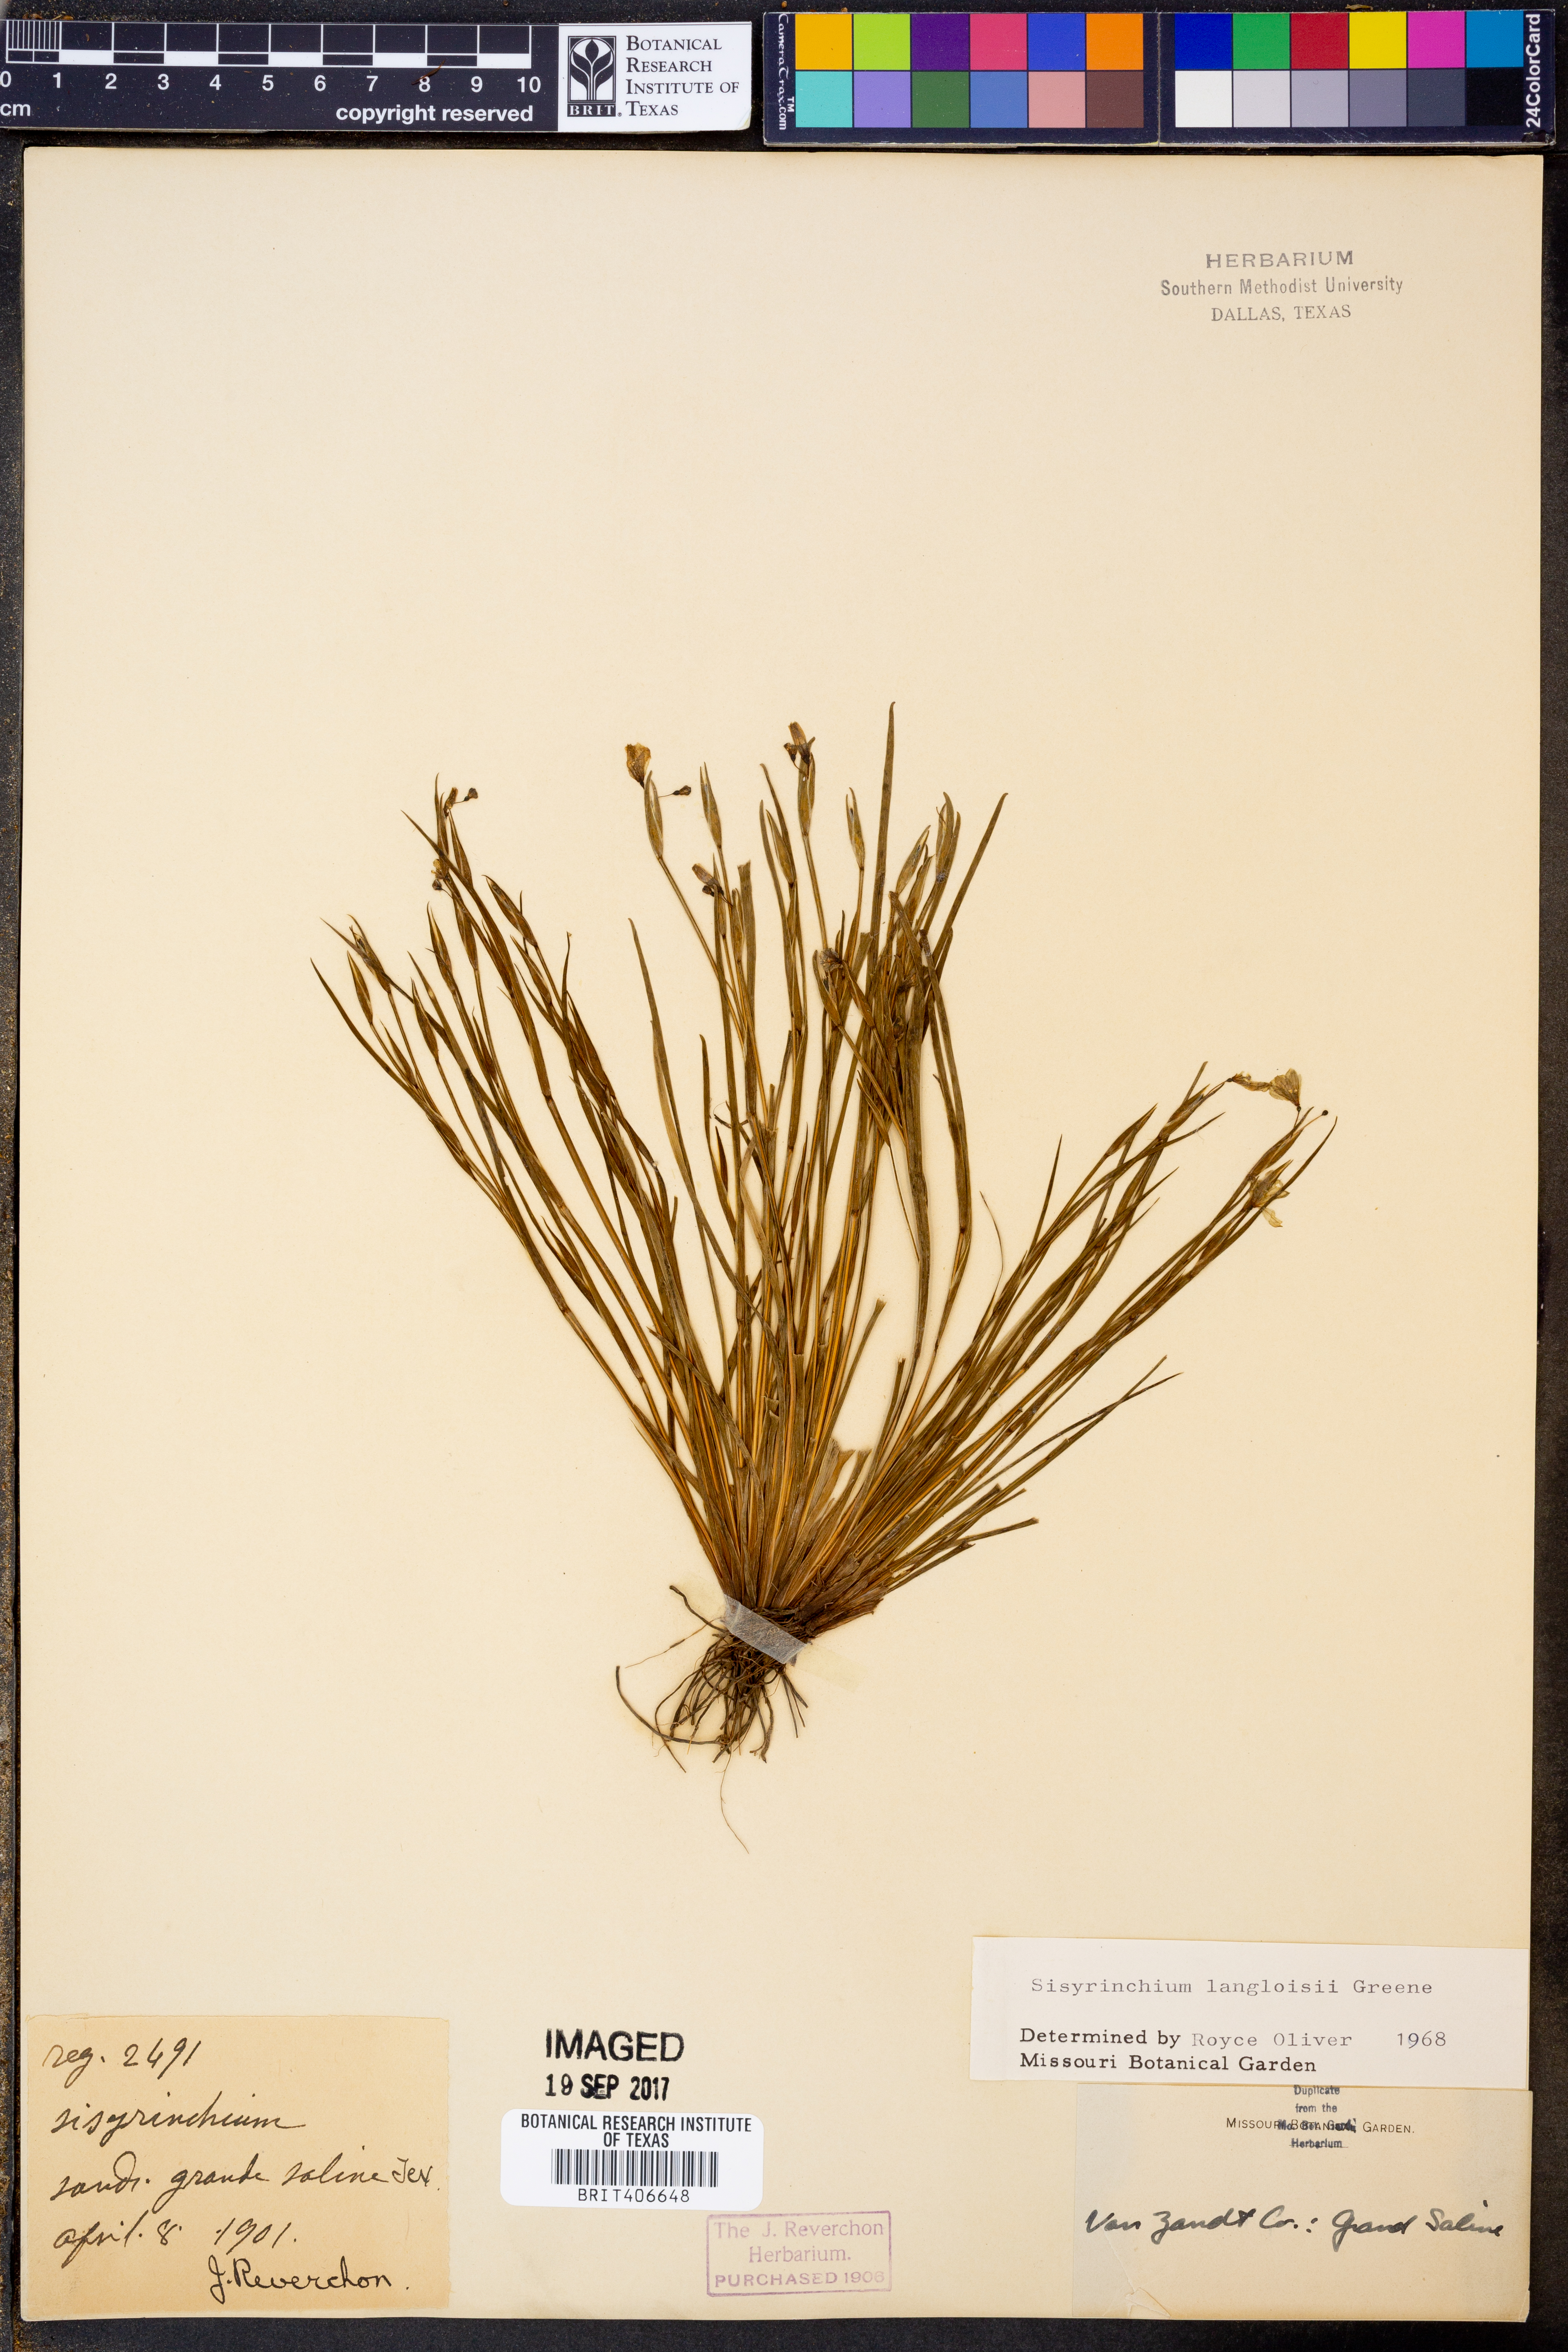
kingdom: Plantae
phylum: Tracheophyta
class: Liliopsida
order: Asparagales
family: Iridaceae
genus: Sisyrinchium
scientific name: Sisyrinchium langloisii
